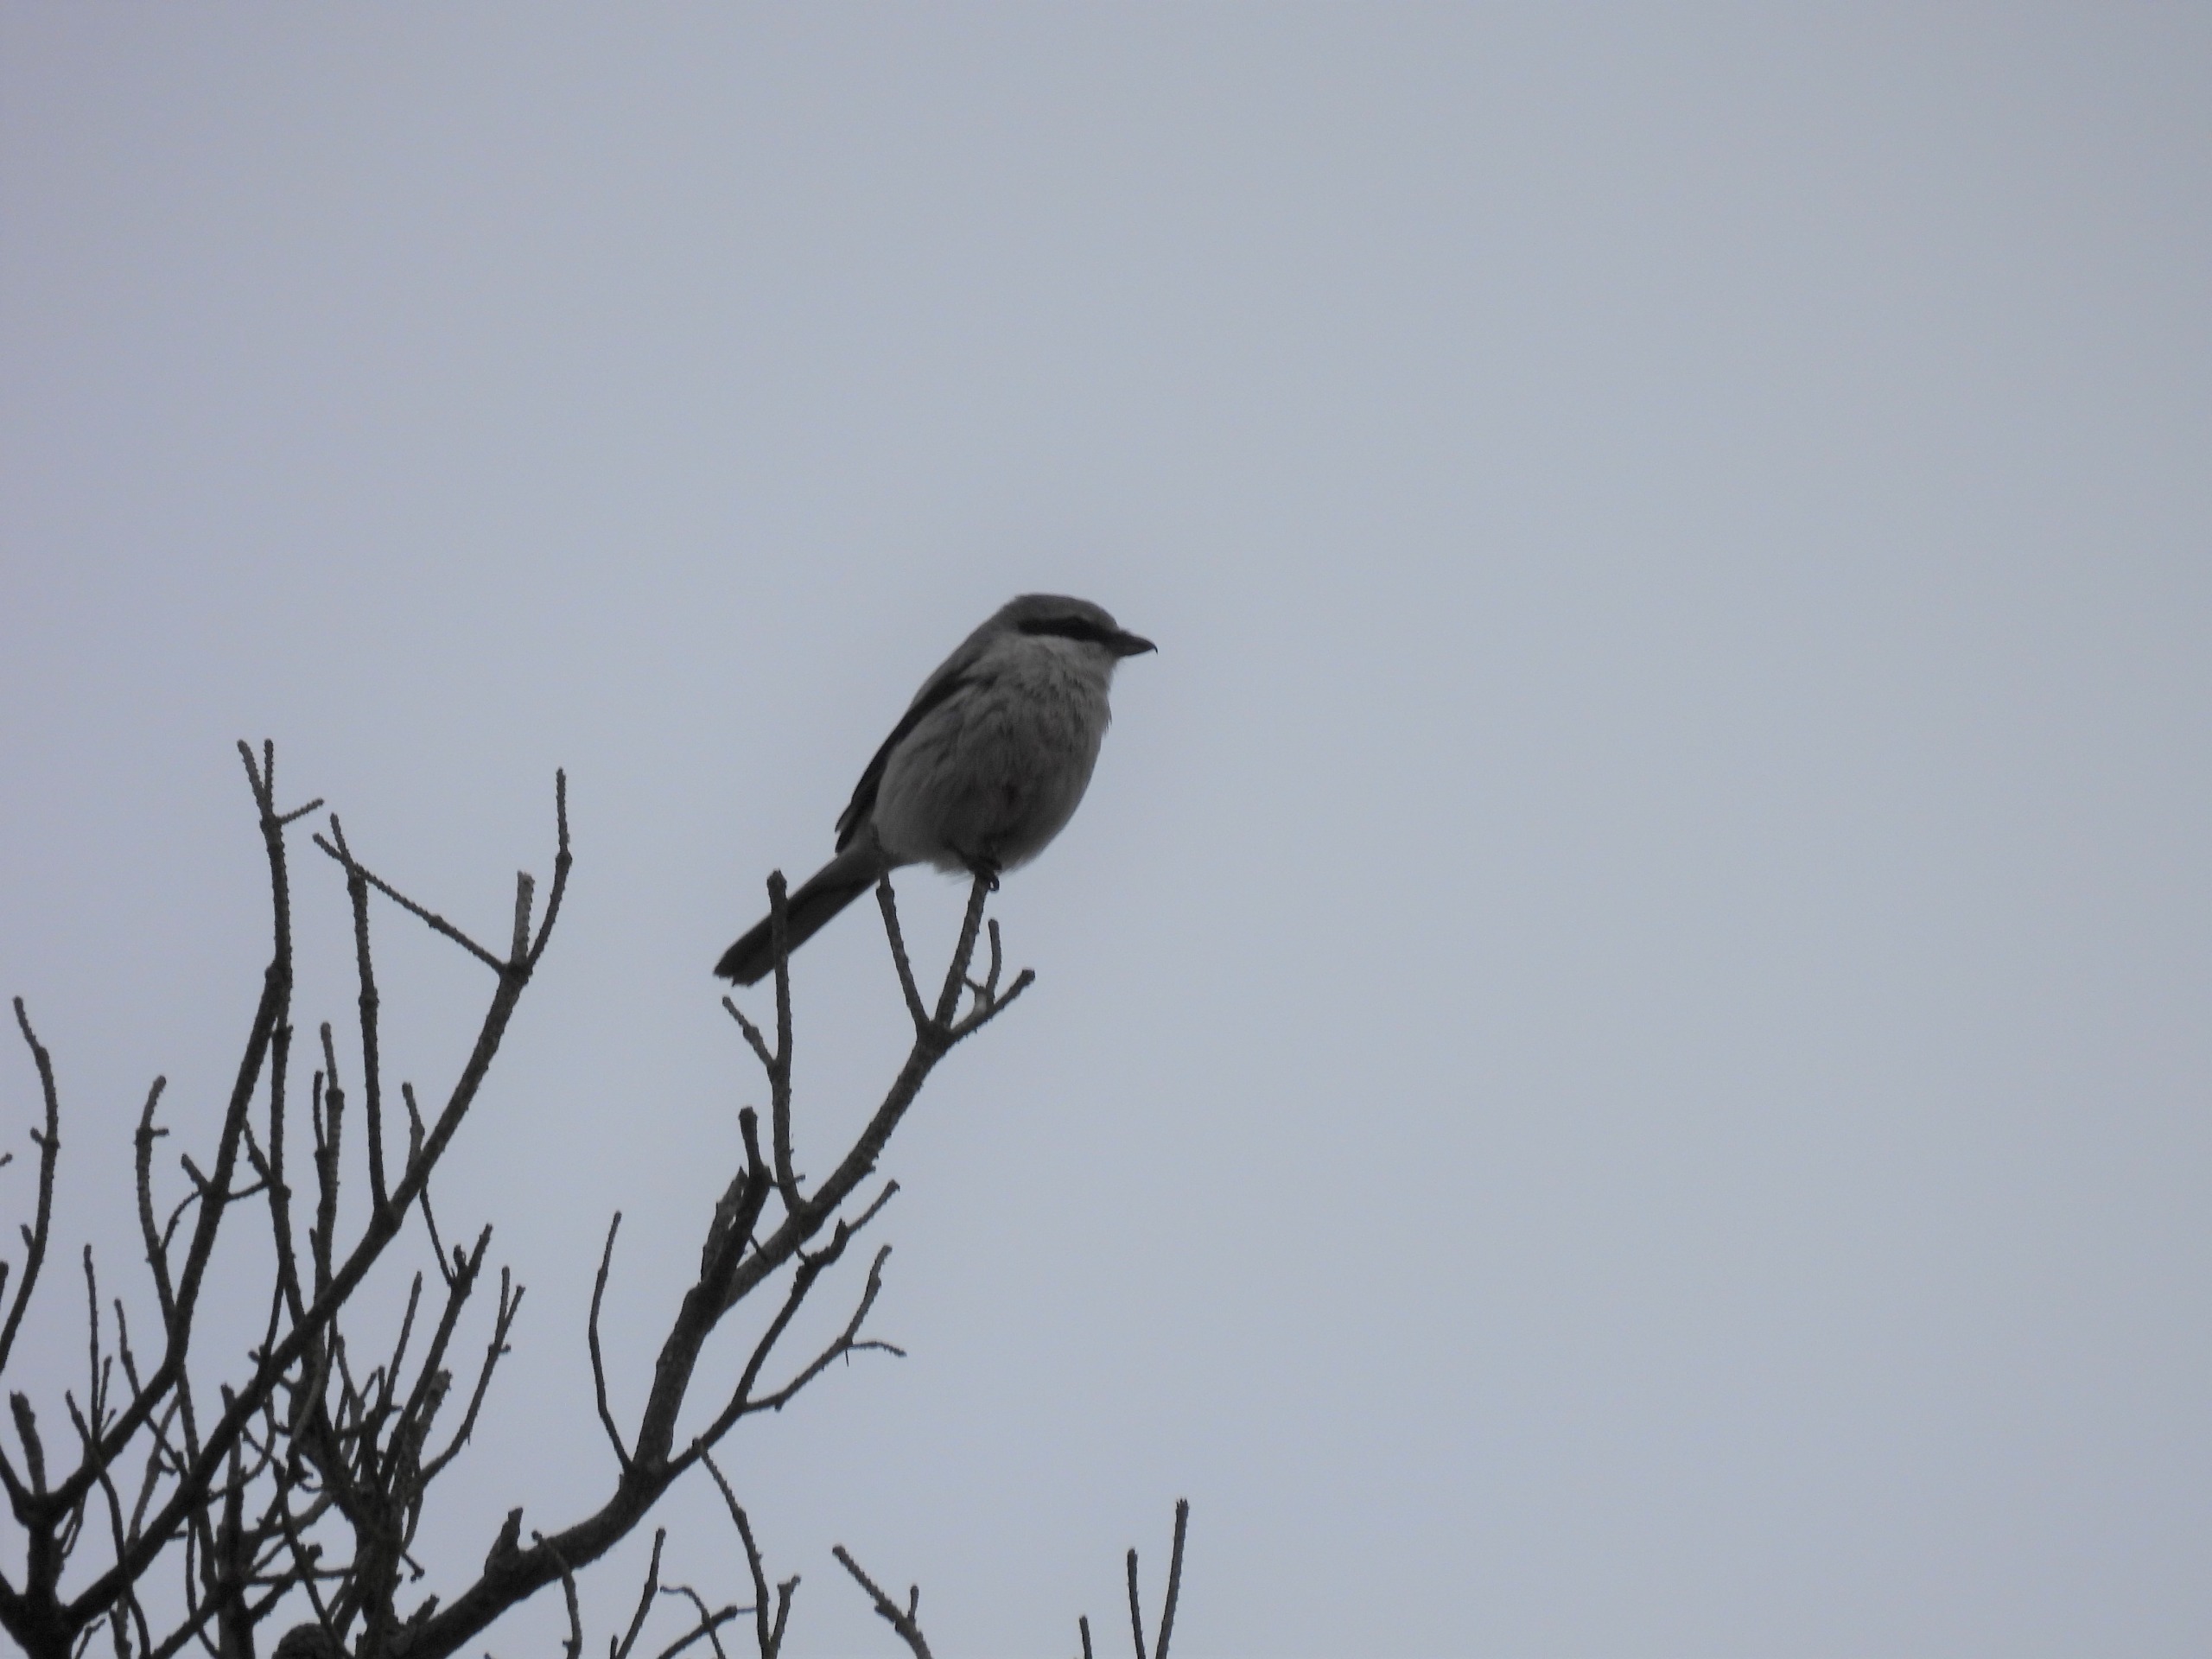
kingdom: Animalia
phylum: Chordata
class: Aves
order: Passeriformes
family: Laniidae
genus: Lanius
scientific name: Lanius excubitor
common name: Stor tornskade
